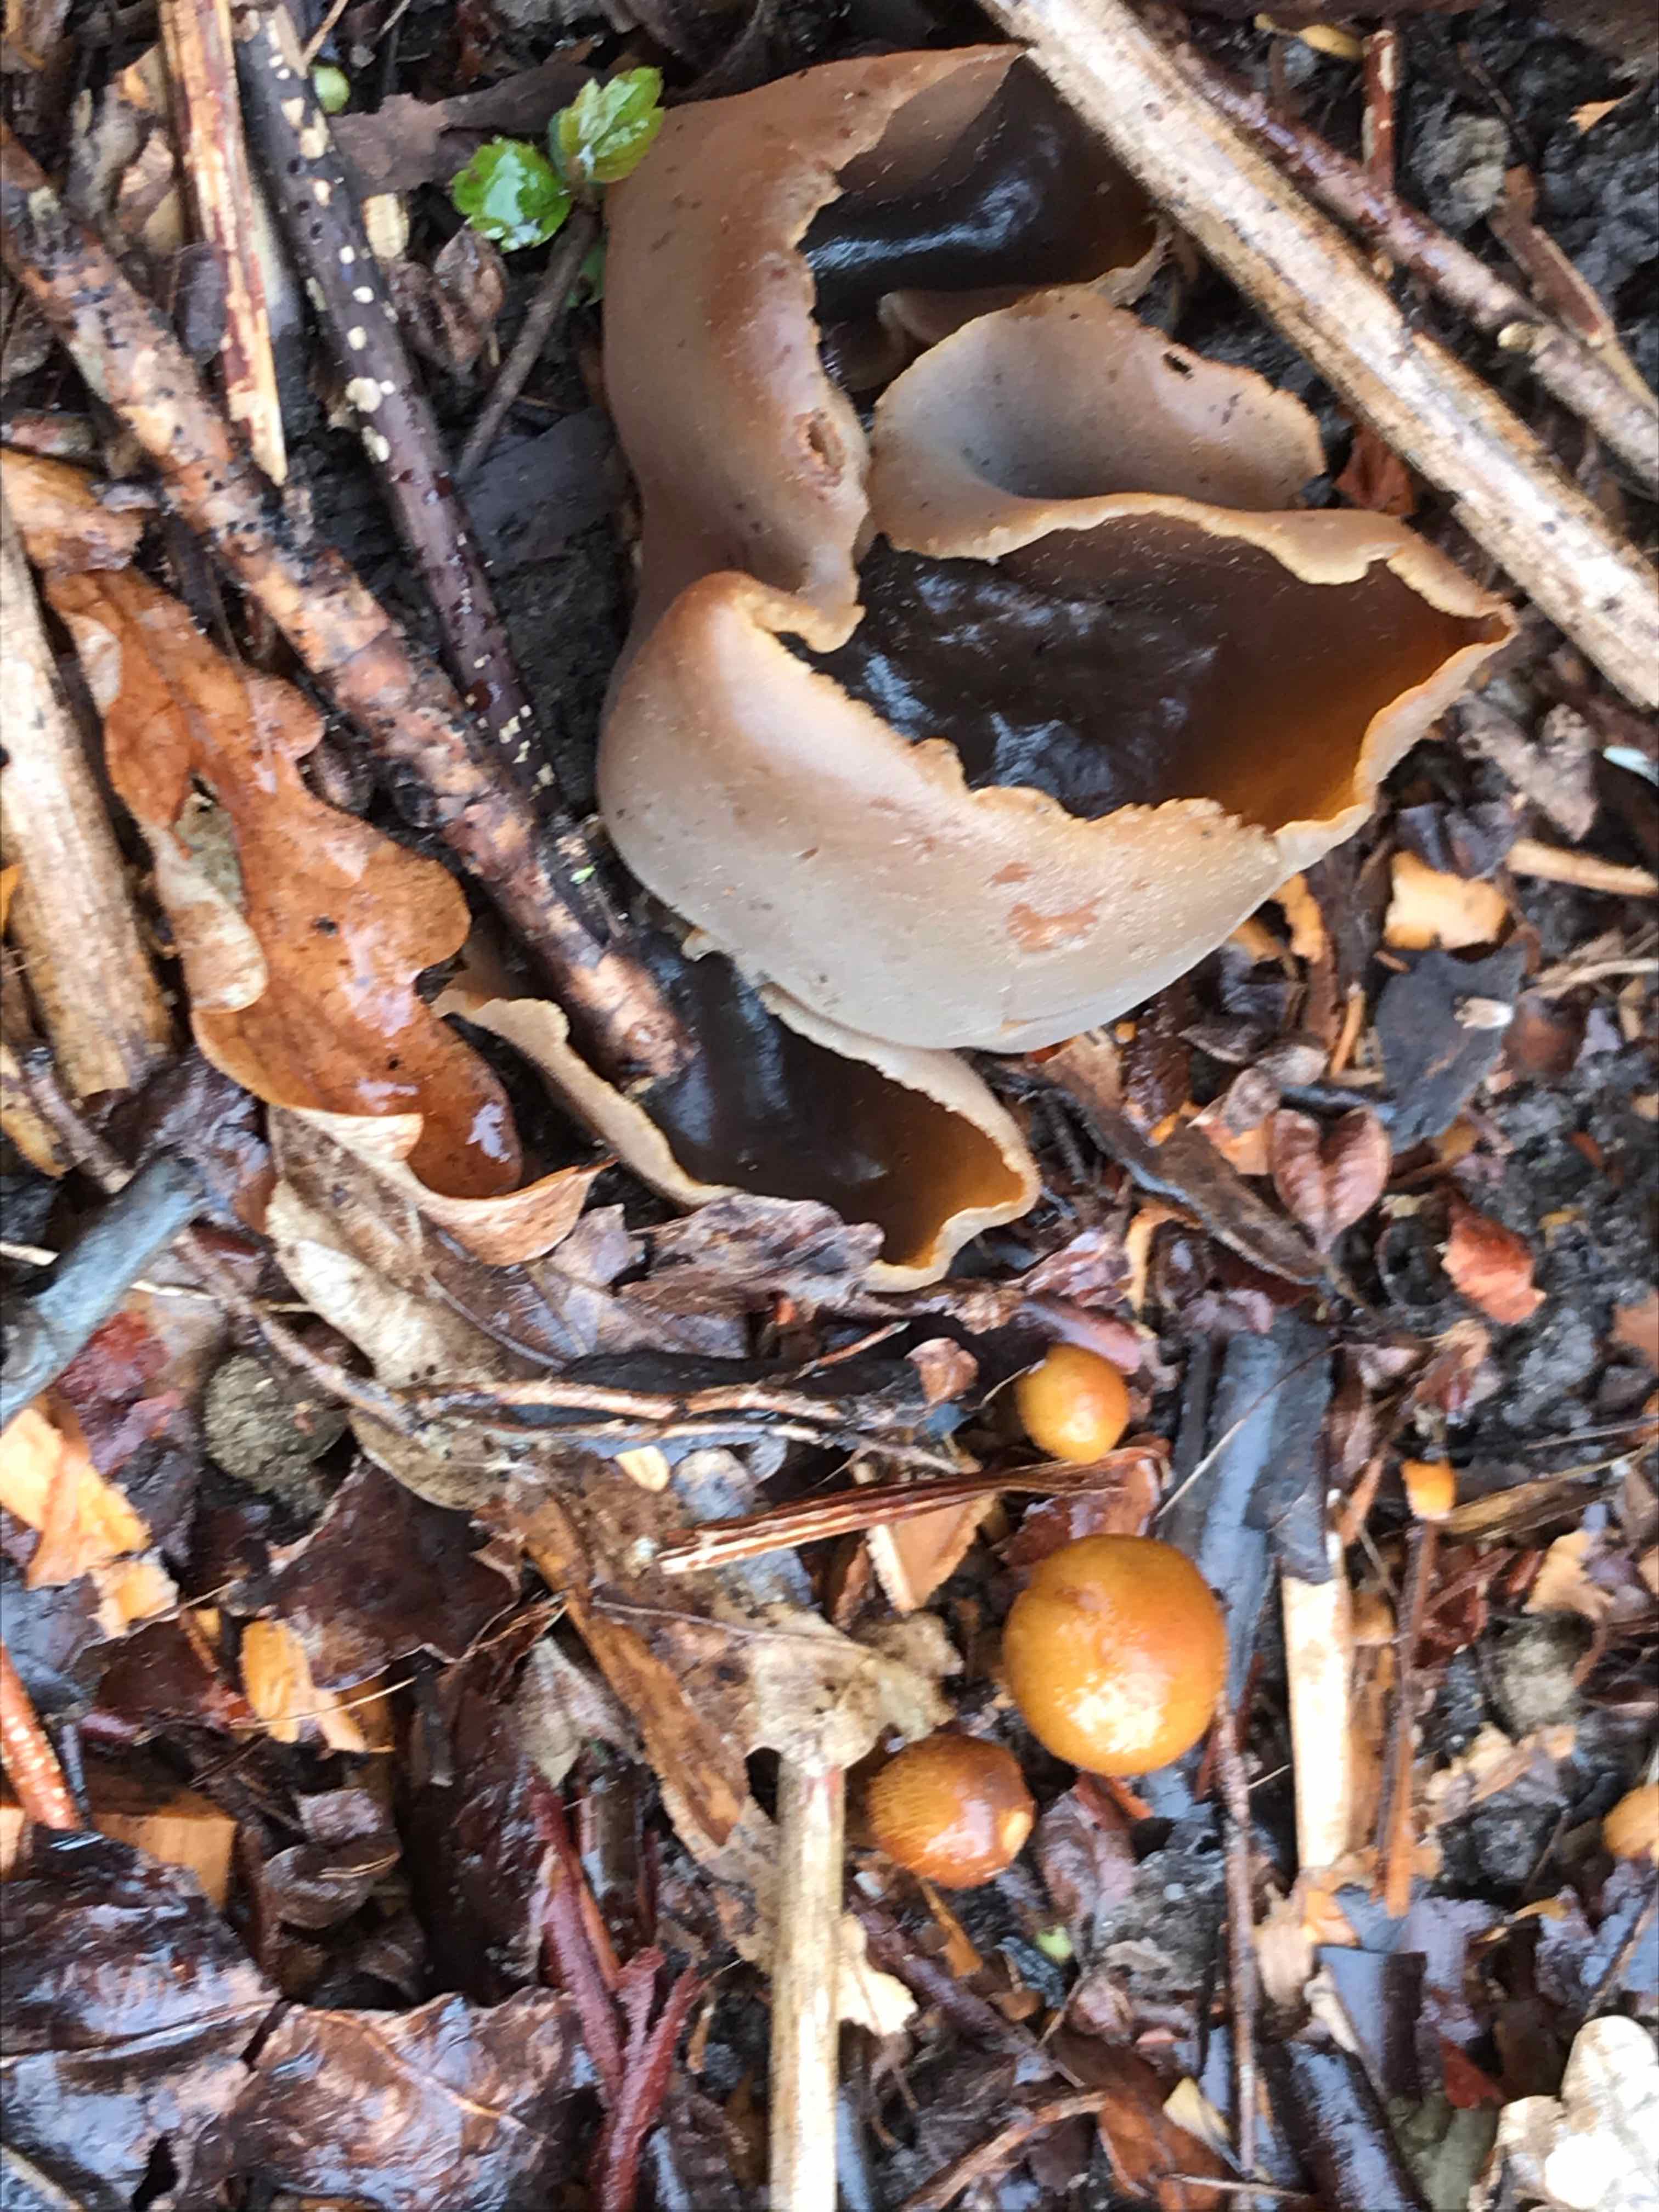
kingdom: Fungi
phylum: Basidiomycota
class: Agaricomycetes
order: Agaricales
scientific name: Agaricales
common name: champignonordenen
